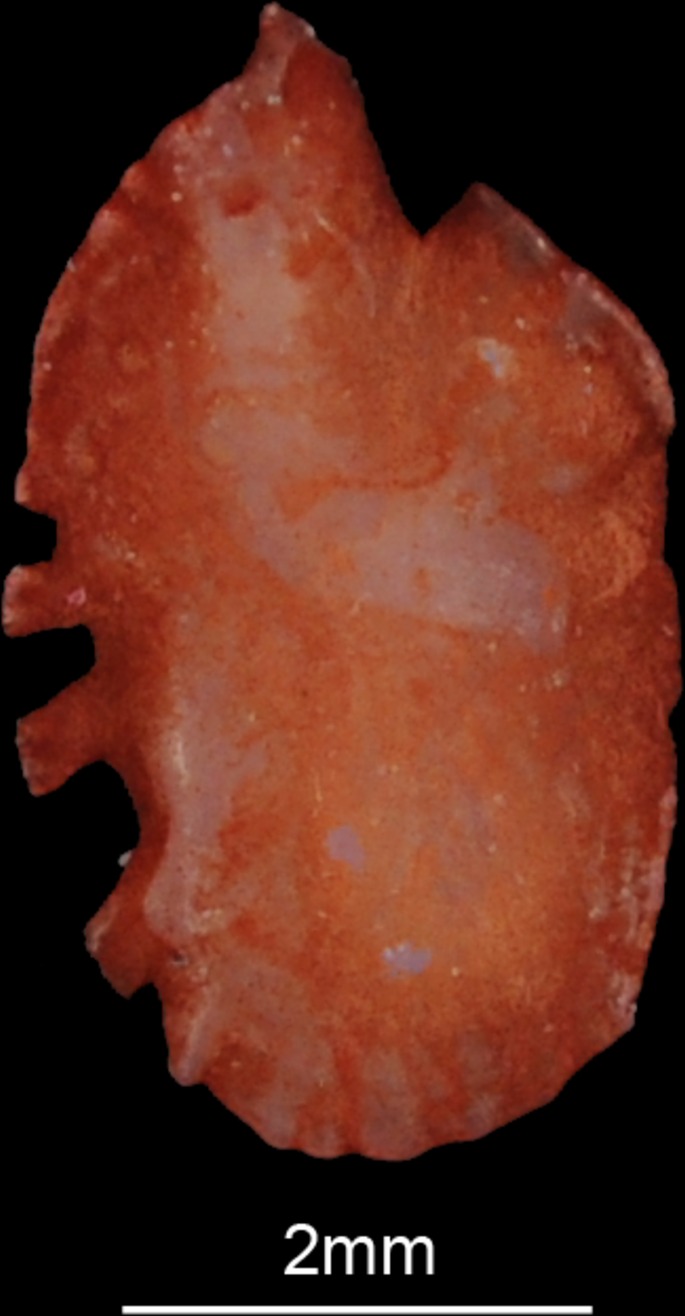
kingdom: Animalia
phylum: Chordata
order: Clupeiformes
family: Pristigasteridae
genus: Ilisha
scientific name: Ilisha africana
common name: African ilisha
